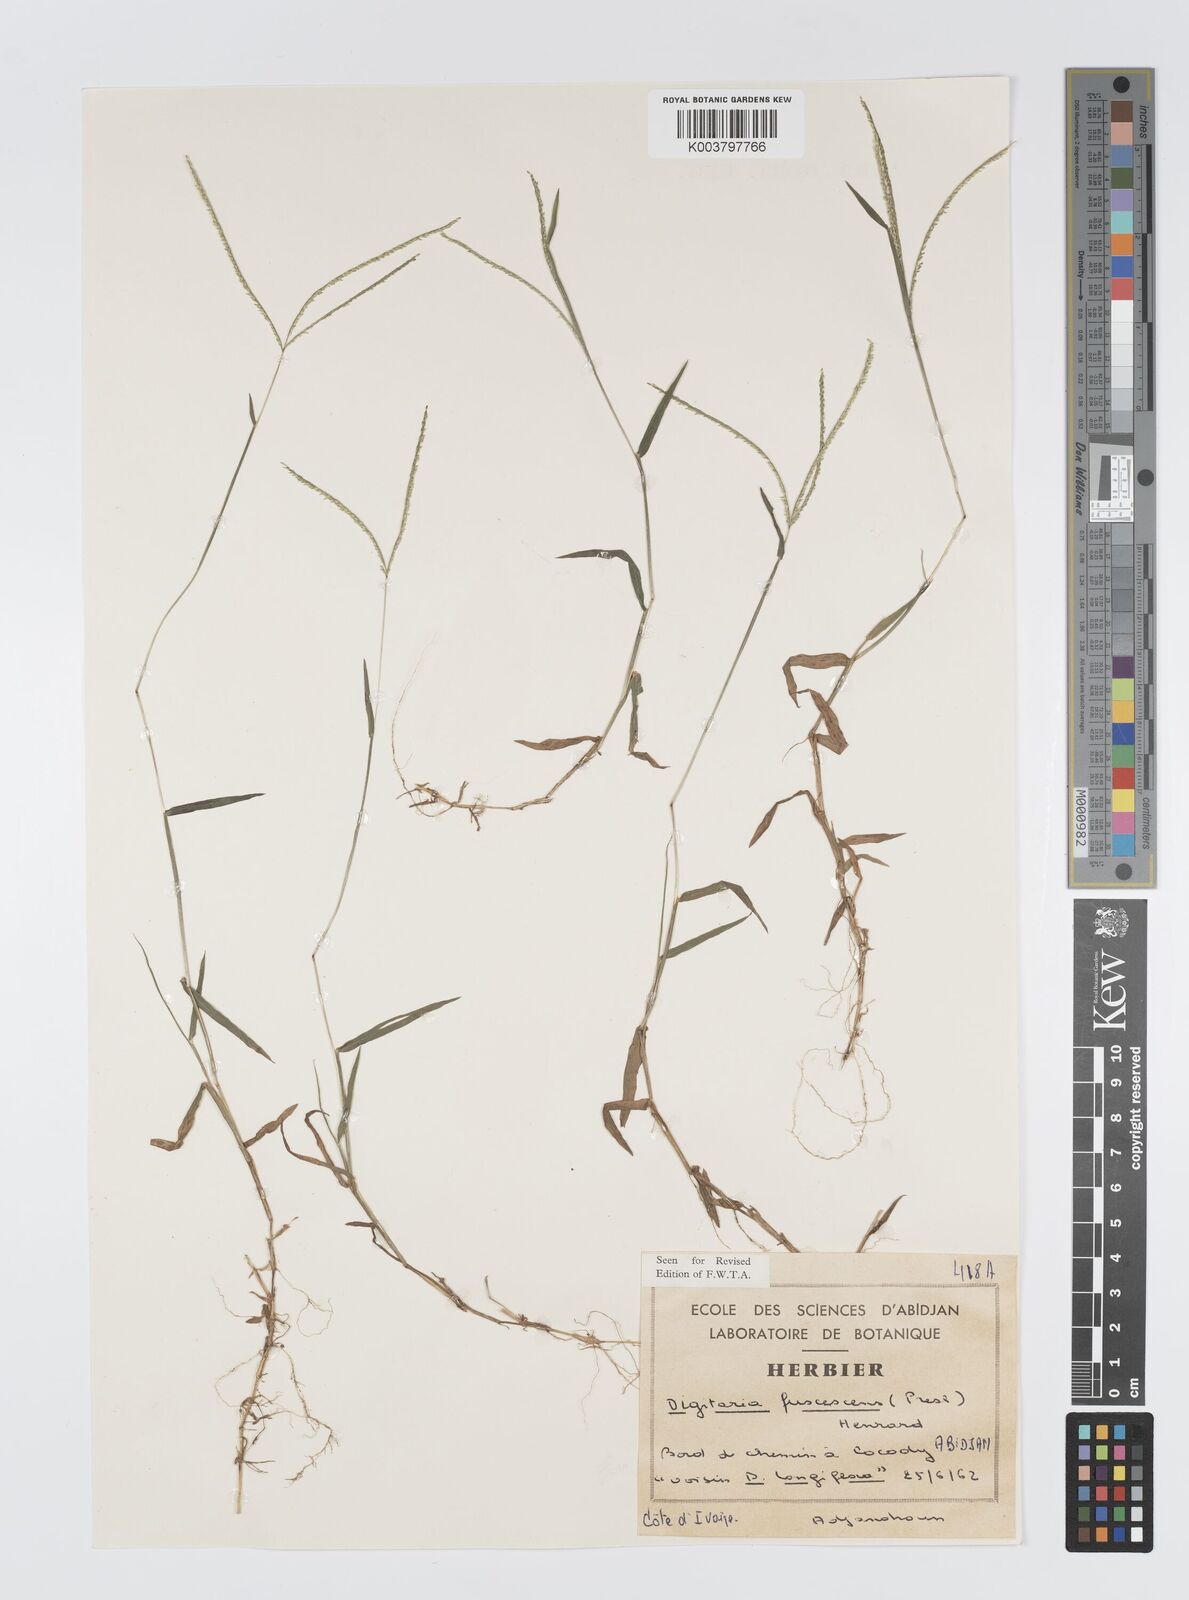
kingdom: Plantae
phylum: Tracheophyta
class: Liliopsida
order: Poales
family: Poaceae
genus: Digitaria
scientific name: Digitaria fuscescens
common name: Yellow crabgrass
